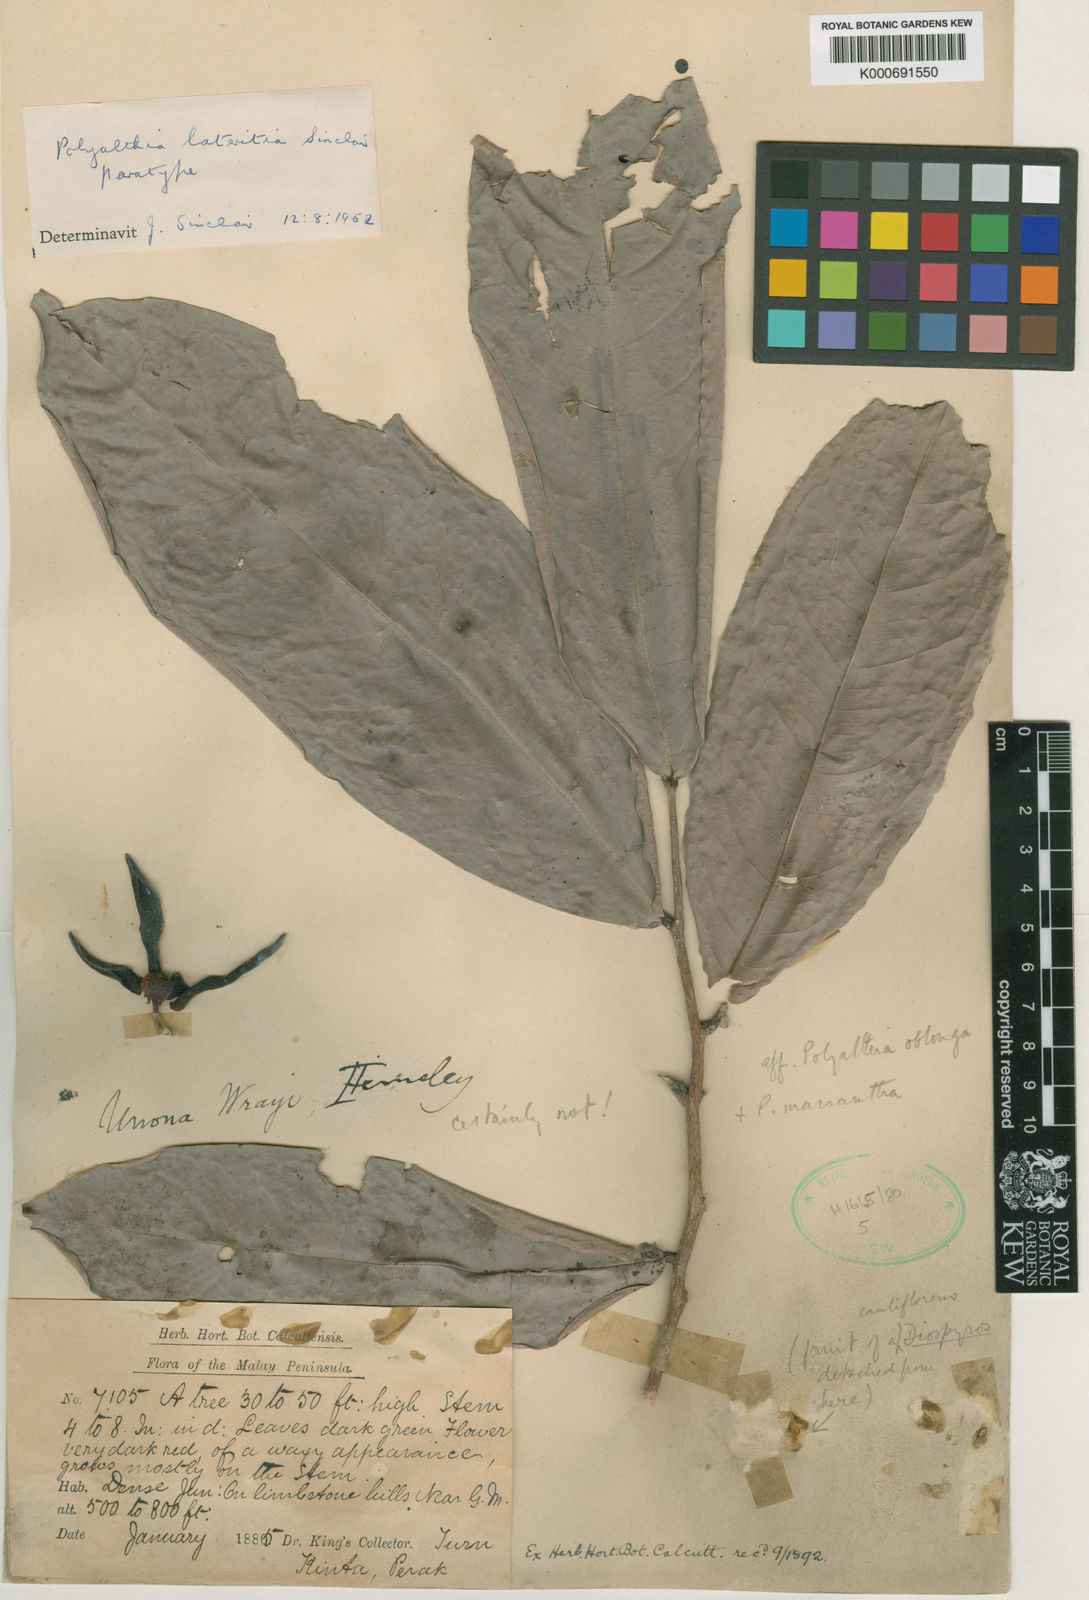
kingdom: Plantae
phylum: Tracheophyta
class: Magnoliopsida
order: Magnoliales
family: Annonaceae
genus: Polyalthia
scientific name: Polyalthia lateritia
